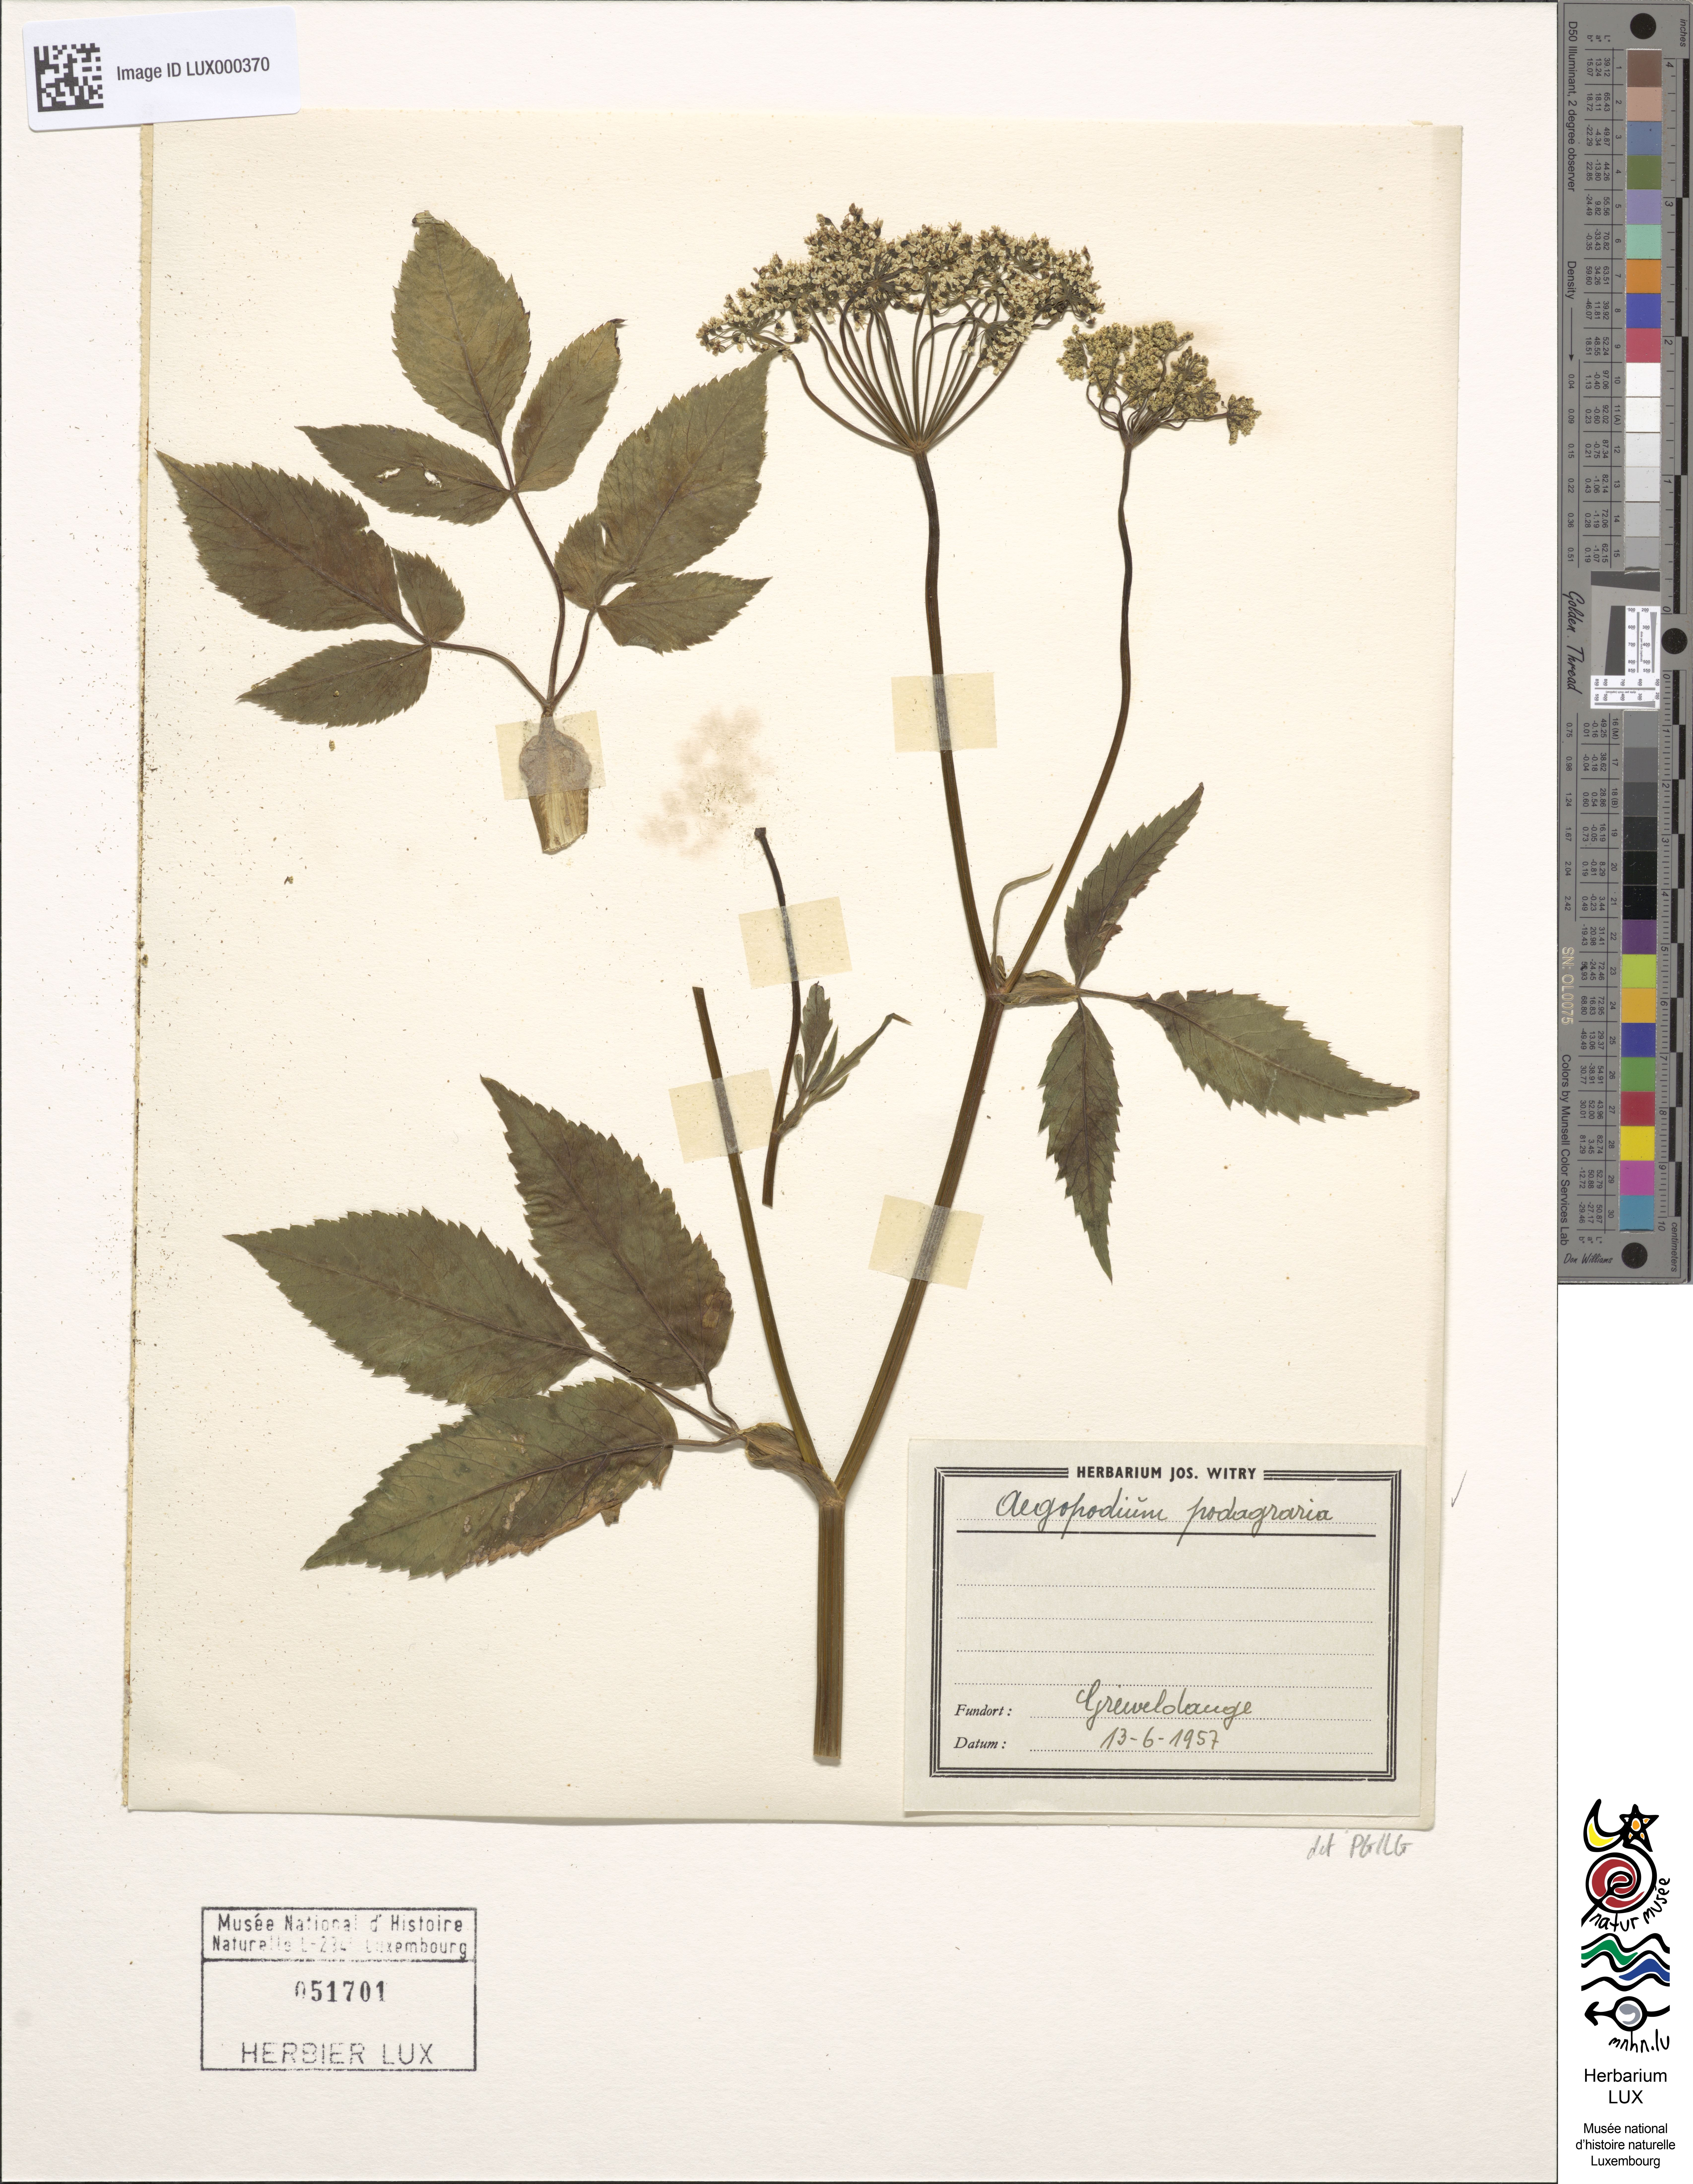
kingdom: Plantae
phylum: Tracheophyta
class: Magnoliopsida
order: Apiales
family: Apiaceae
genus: Aegopodium
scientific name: Aegopodium podagraria
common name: Ground-elder
